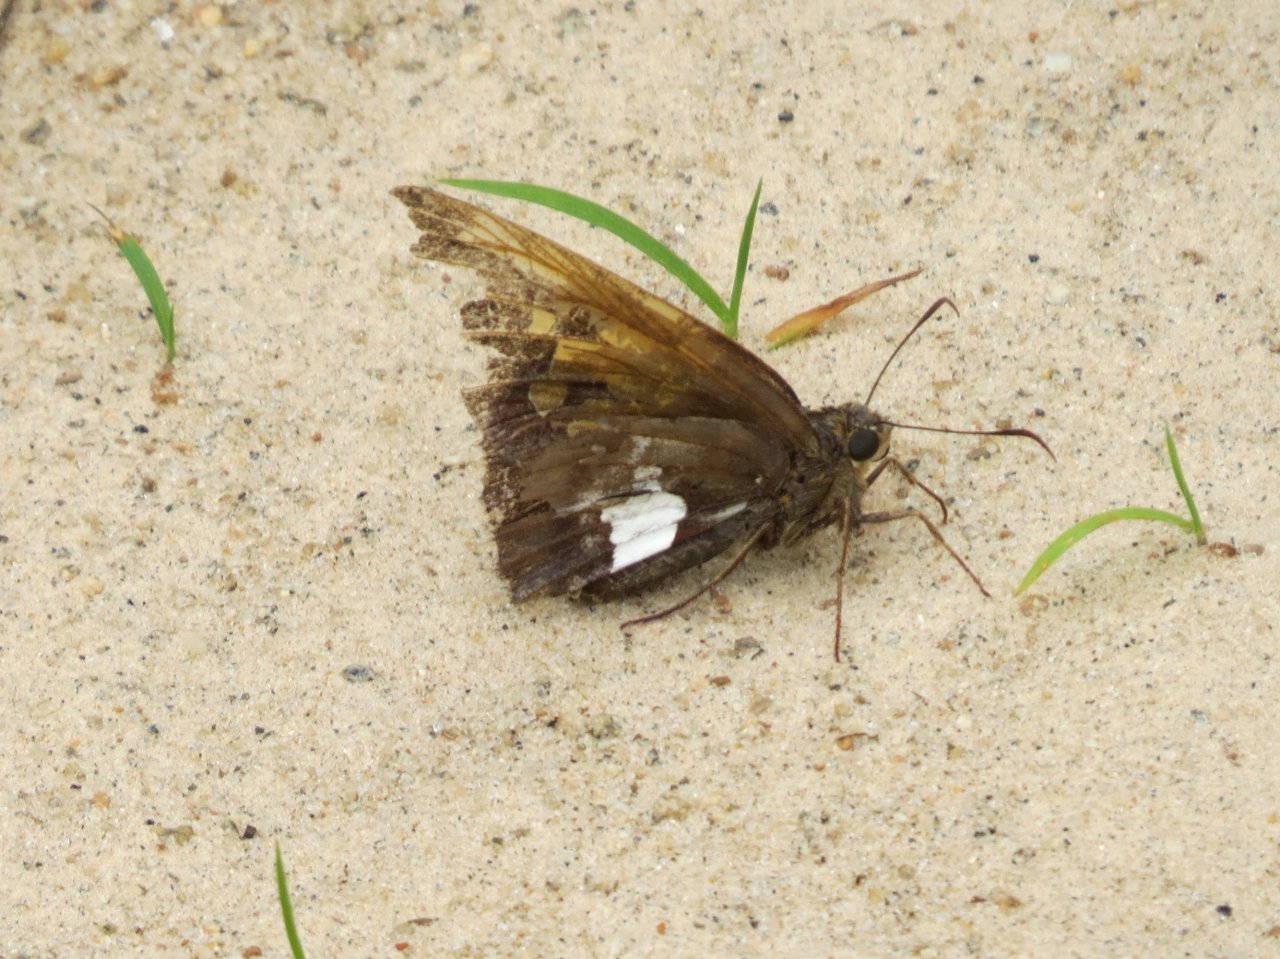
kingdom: Animalia
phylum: Arthropoda
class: Insecta
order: Lepidoptera
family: Hesperiidae
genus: Epargyreus
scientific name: Epargyreus clarus
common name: Silver-spotted Skipper
